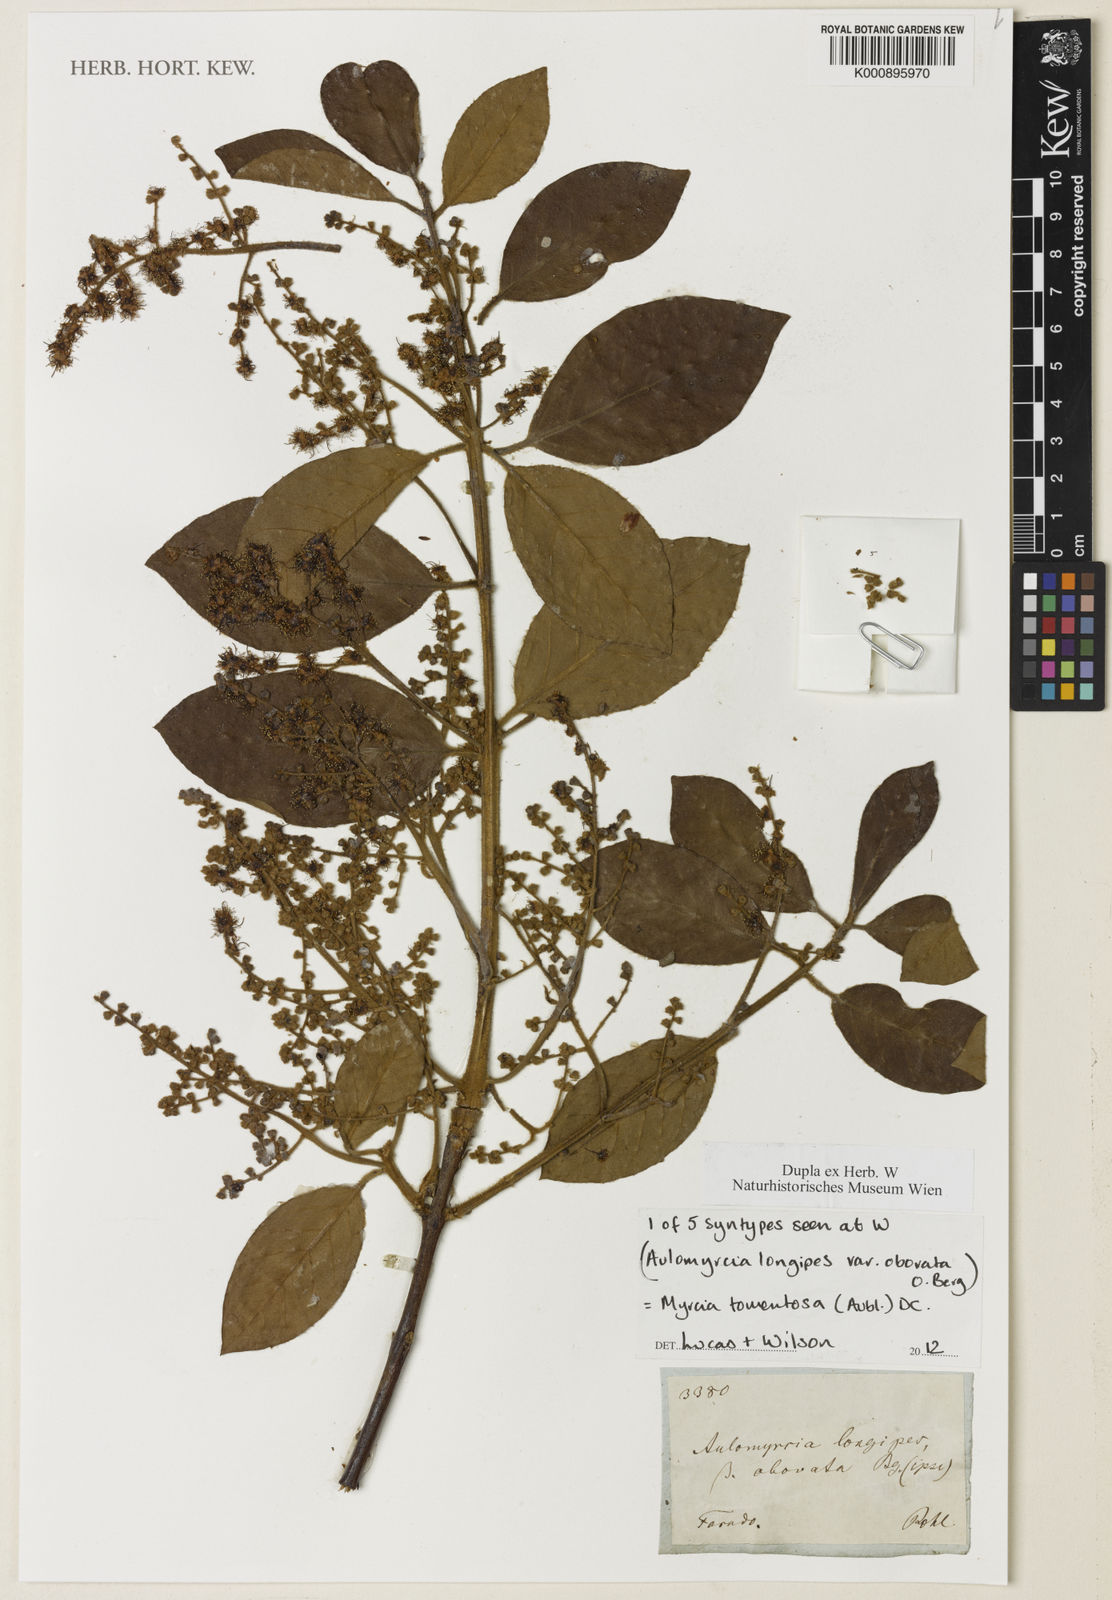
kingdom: Plantae
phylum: Tracheophyta
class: Magnoliopsida
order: Myrtales
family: Myrtaceae
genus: Myrcia
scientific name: Myrcia tomentosa
